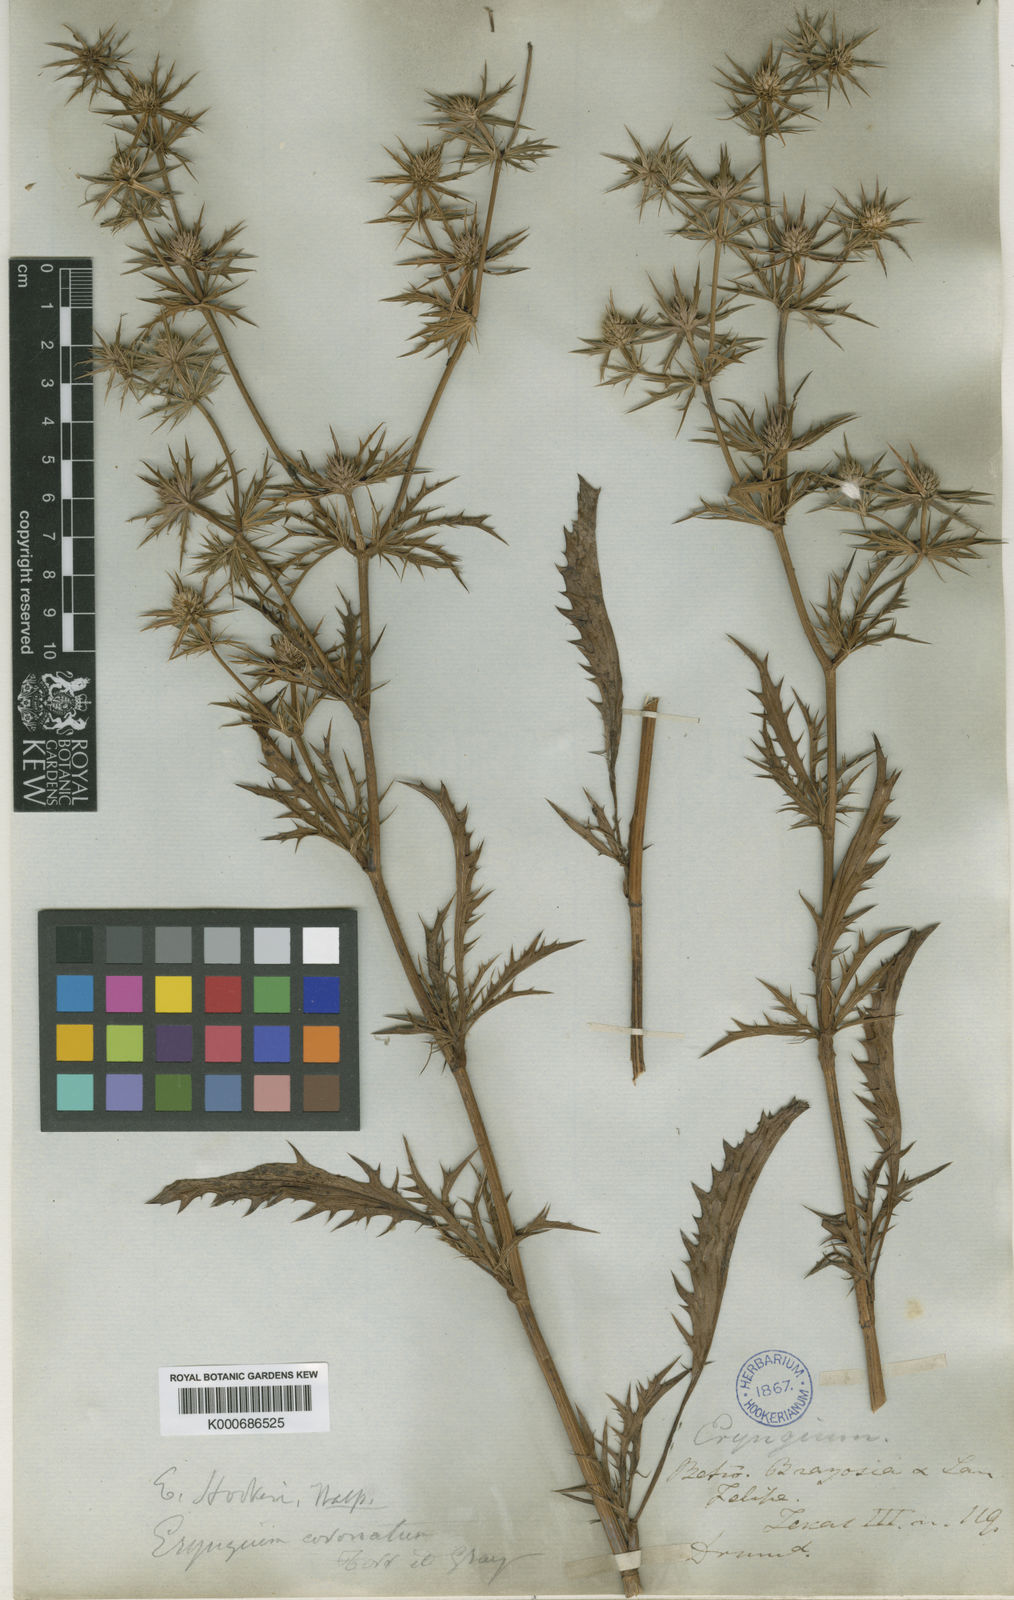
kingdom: Plantae
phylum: Tracheophyta
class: Magnoliopsida
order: Apiales
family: Apiaceae
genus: Eryngium
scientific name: Eryngium hookeri
